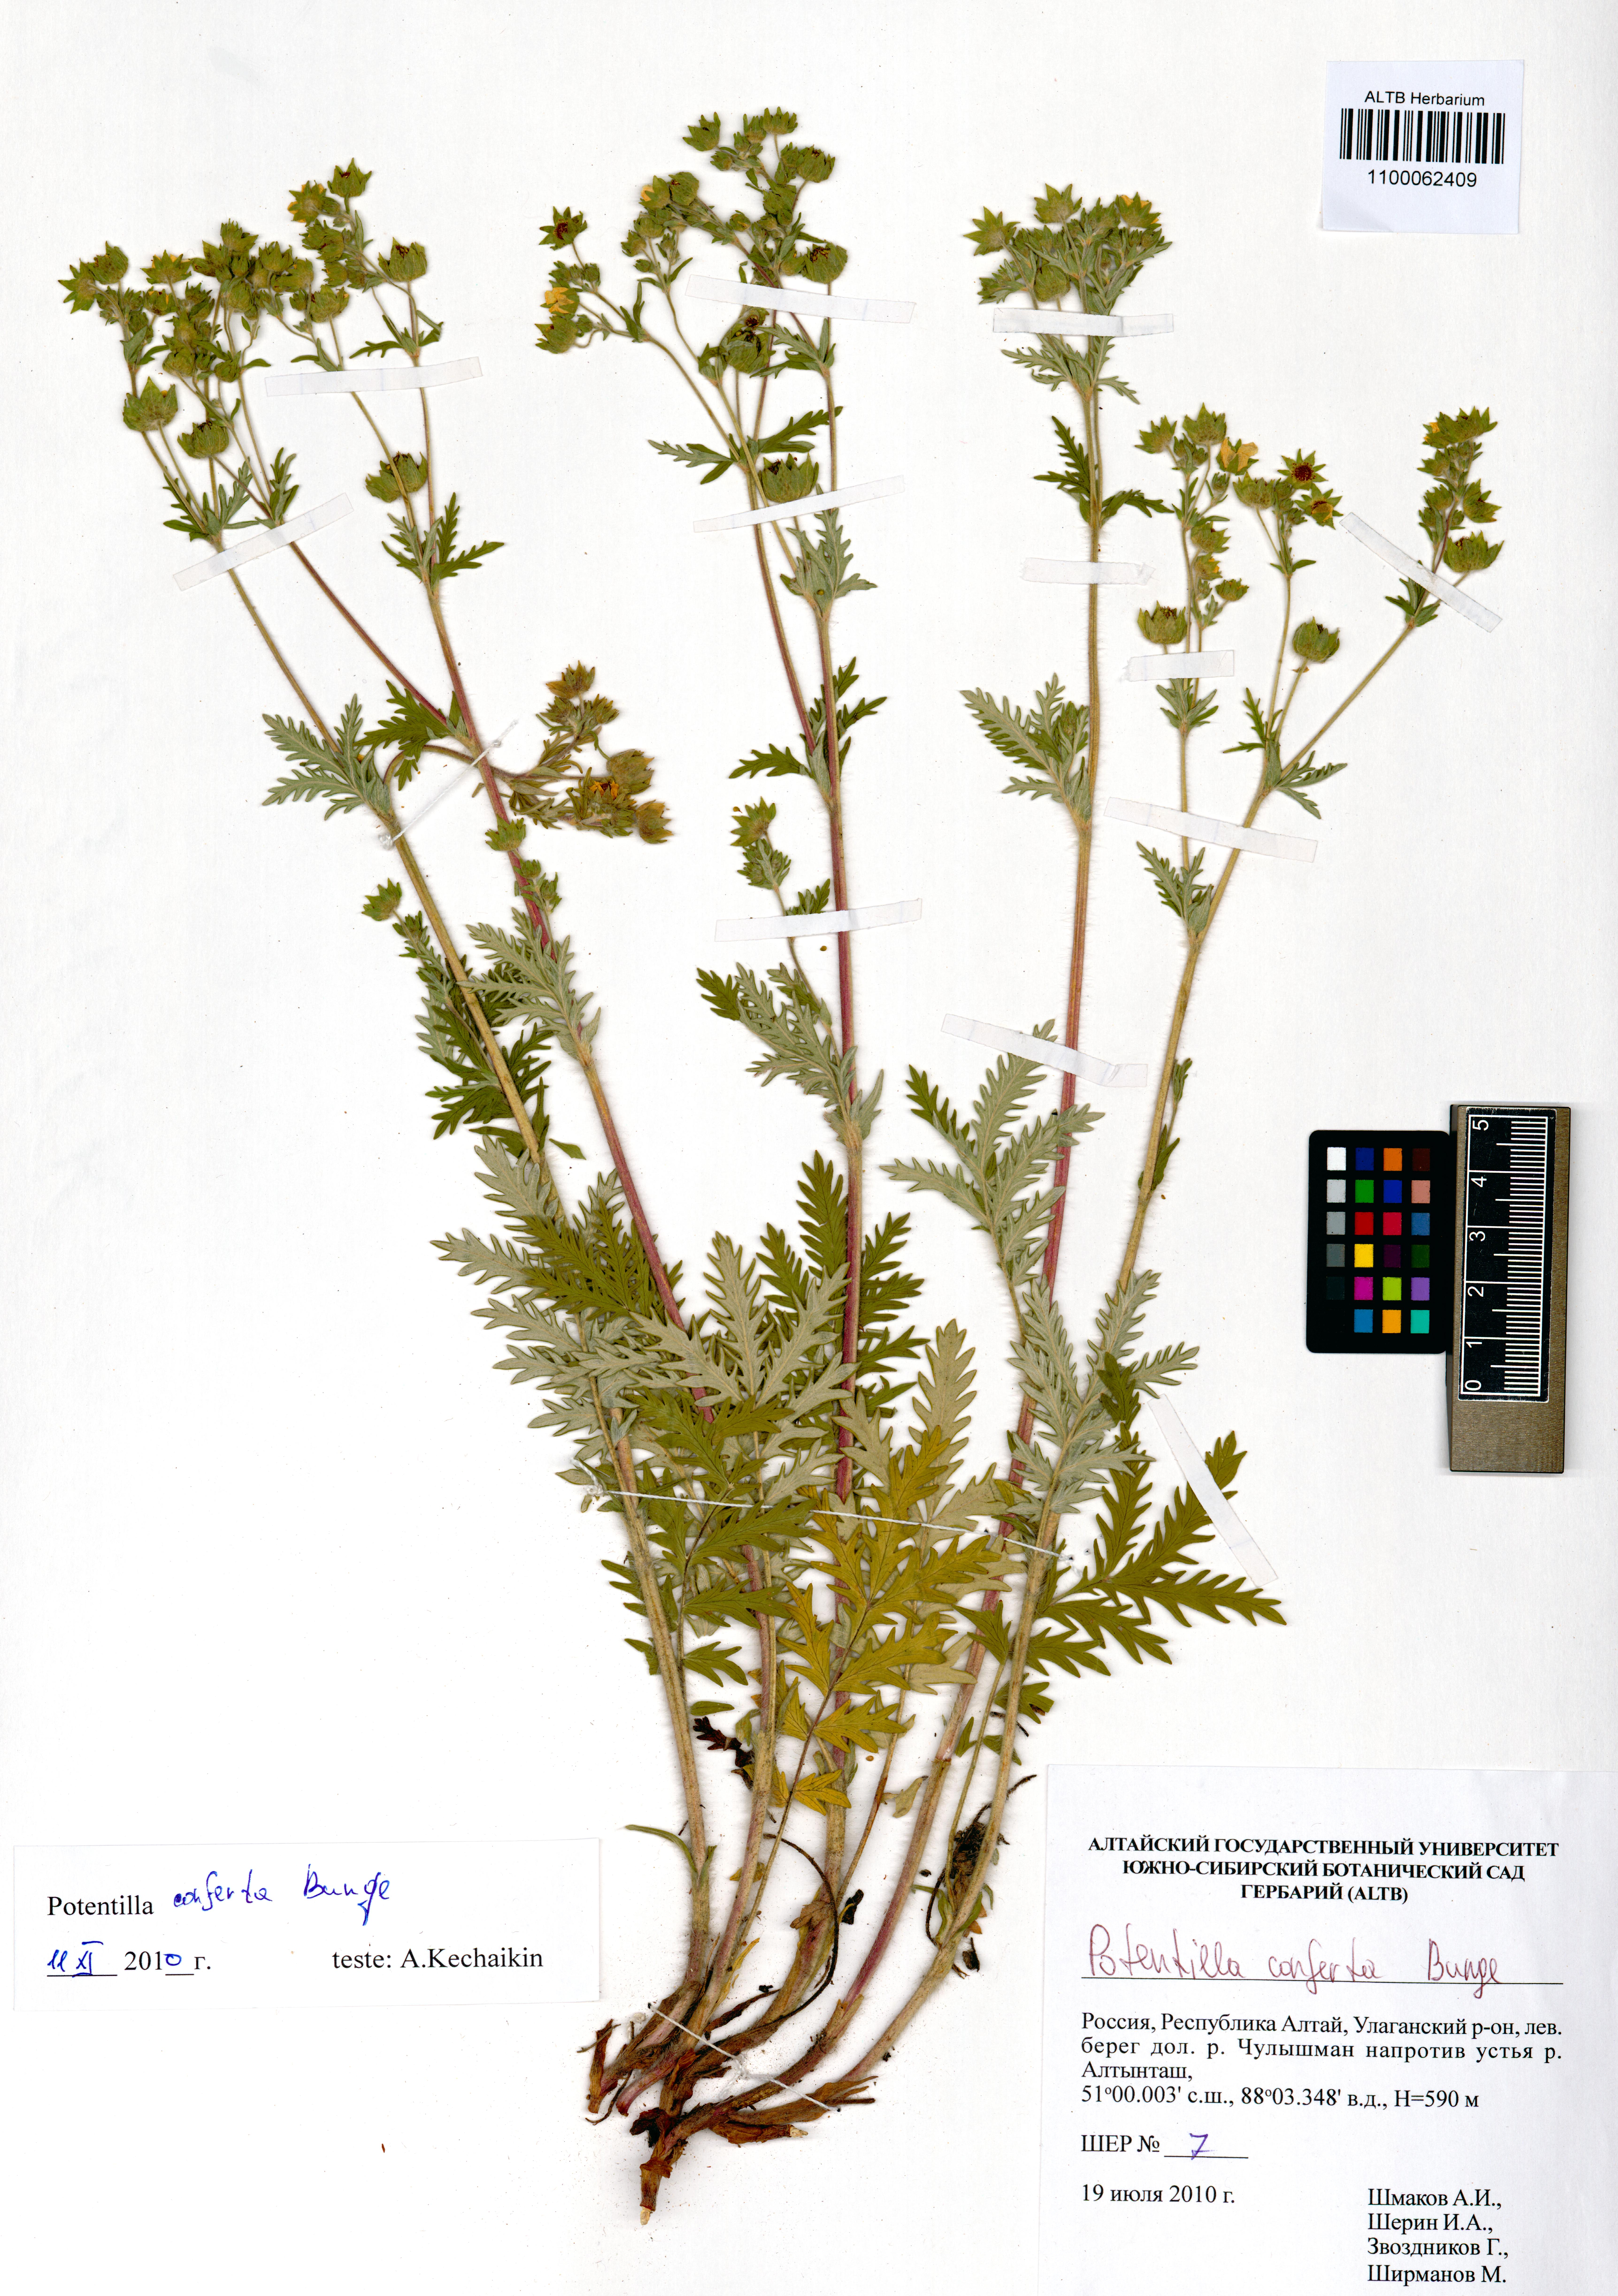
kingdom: Plantae
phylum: Tracheophyta
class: Magnoliopsida
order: Rosales
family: Rosaceae
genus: Potentilla
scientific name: Potentilla conferta
